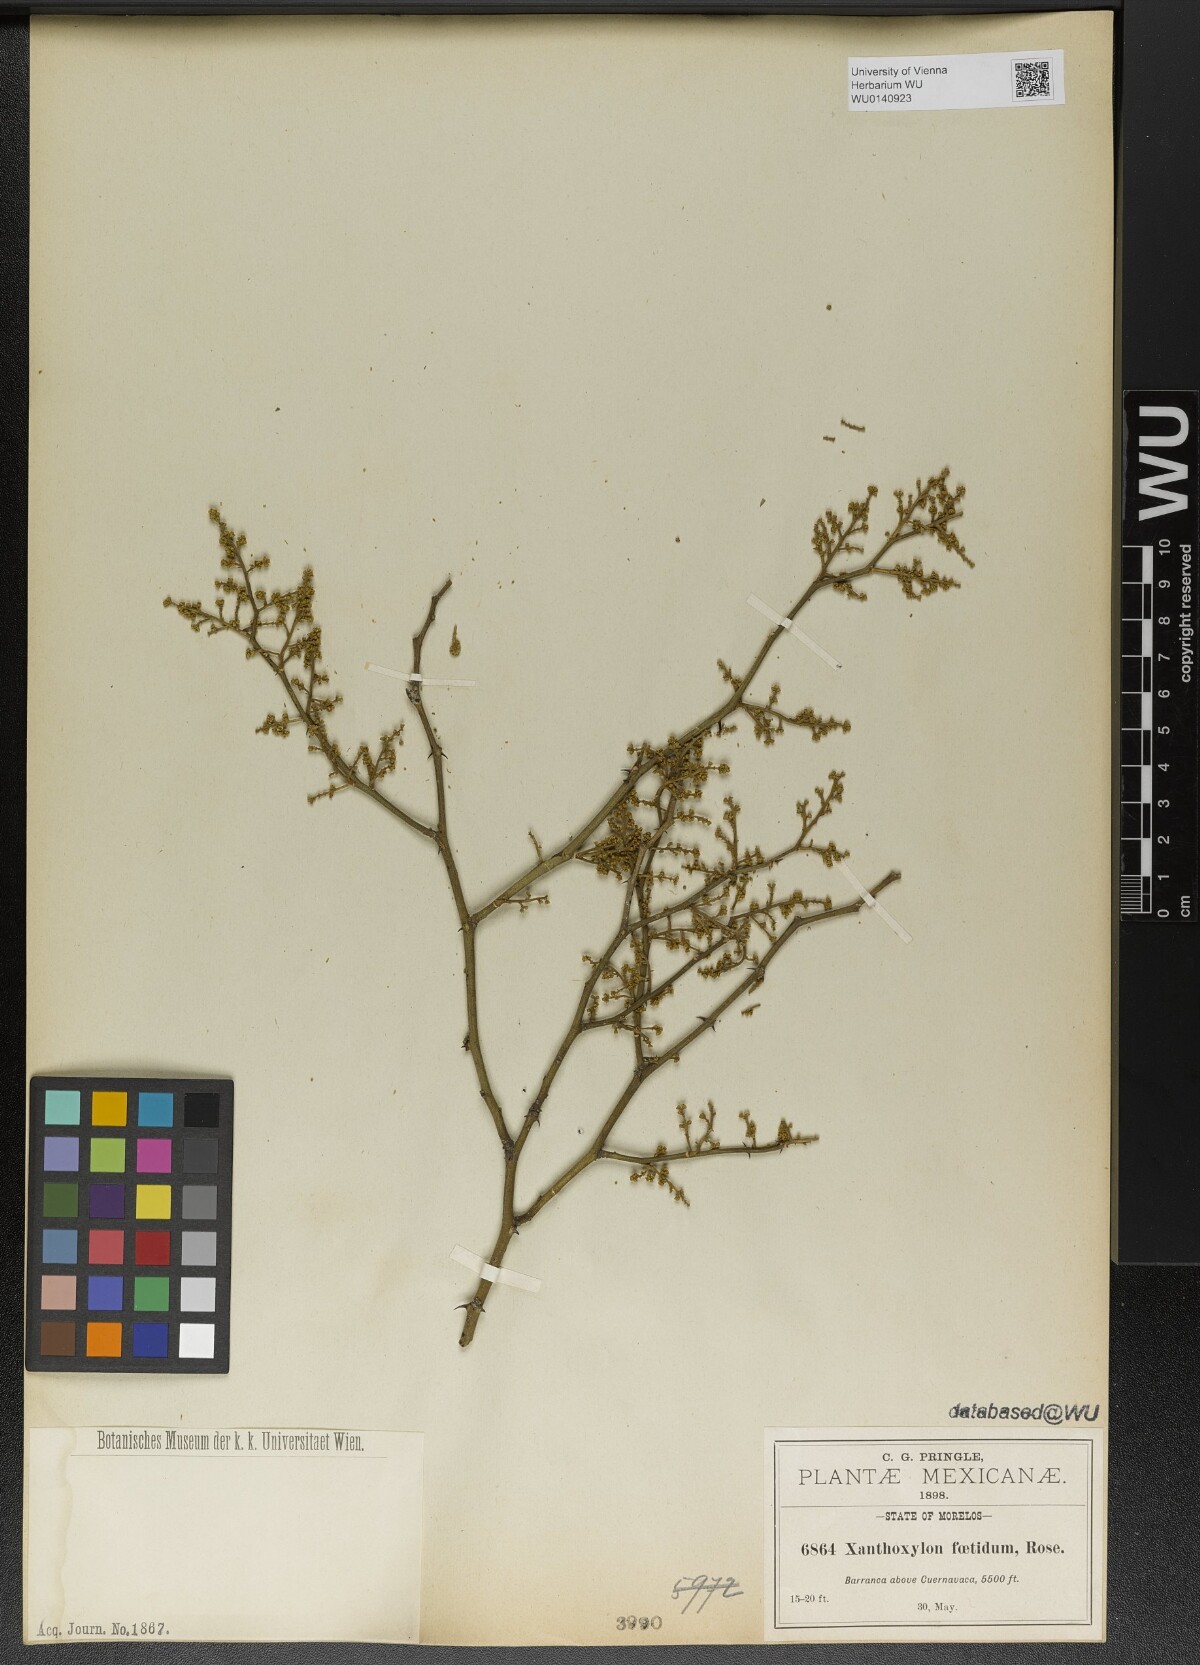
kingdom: Plantae
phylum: Tracheophyta
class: Magnoliopsida
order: Sapindales
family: Rutaceae
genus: Zanthoxylum
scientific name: Zanthoxylum limoncello
